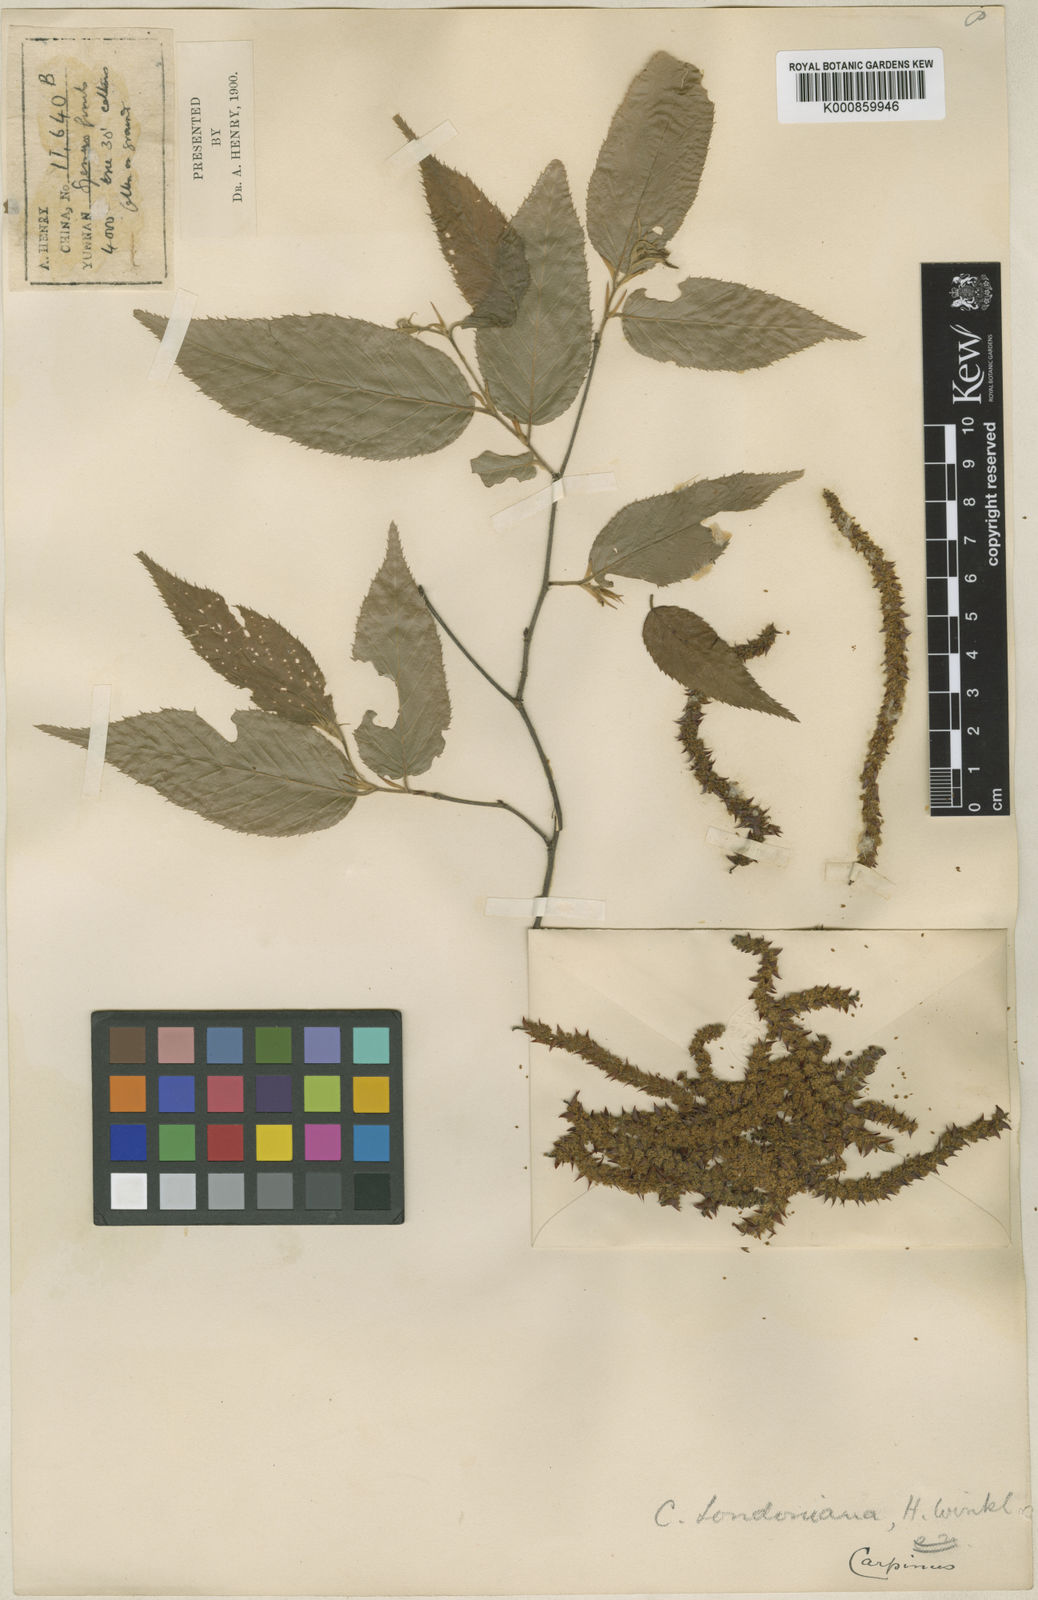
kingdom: Plantae
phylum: Tracheophyta
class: Magnoliopsida
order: Fagales
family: Betulaceae
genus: Carpinus
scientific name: Carpinus londoniana
